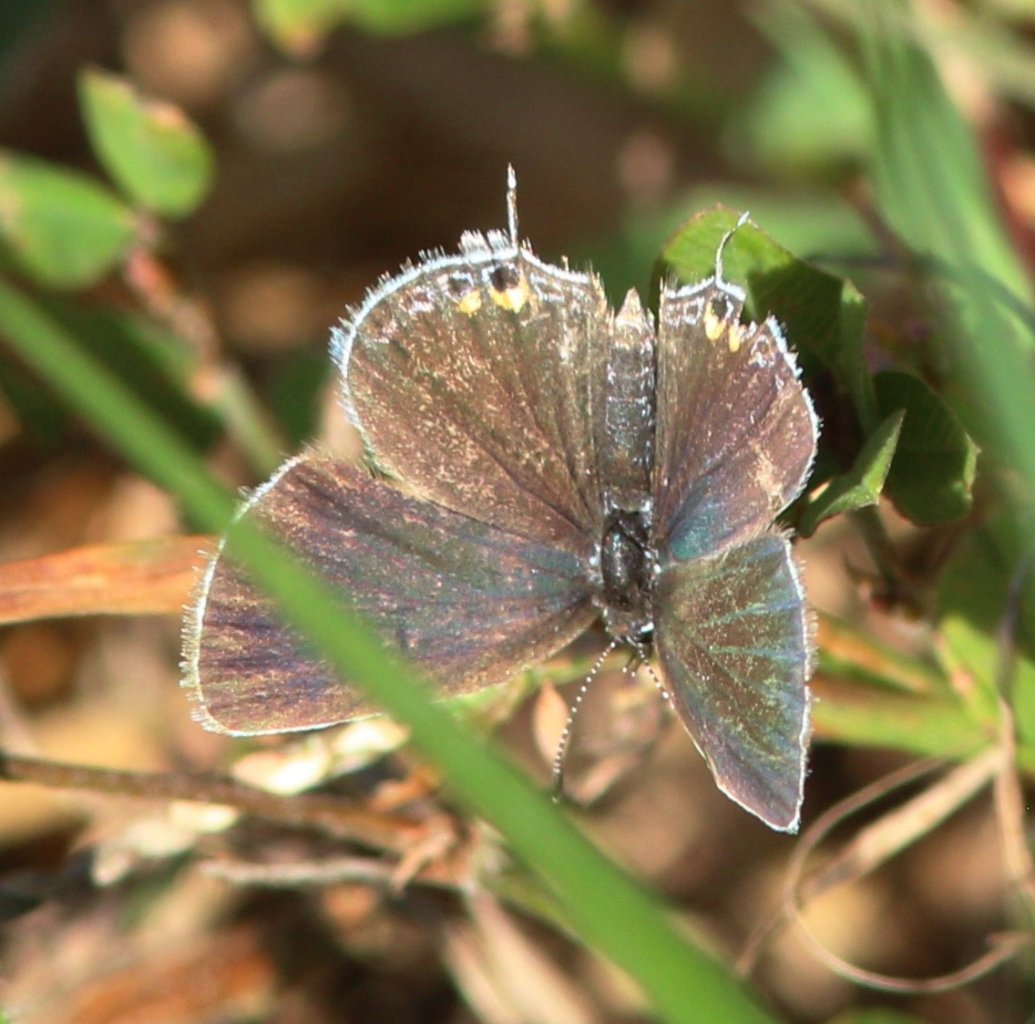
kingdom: Animalia
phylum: Arthropoda
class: Insecta
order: Lepidoptera
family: Lycaenidae
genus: Elkalyce
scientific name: Elkalyce comyntas
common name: Eastern Tailed-Blue
